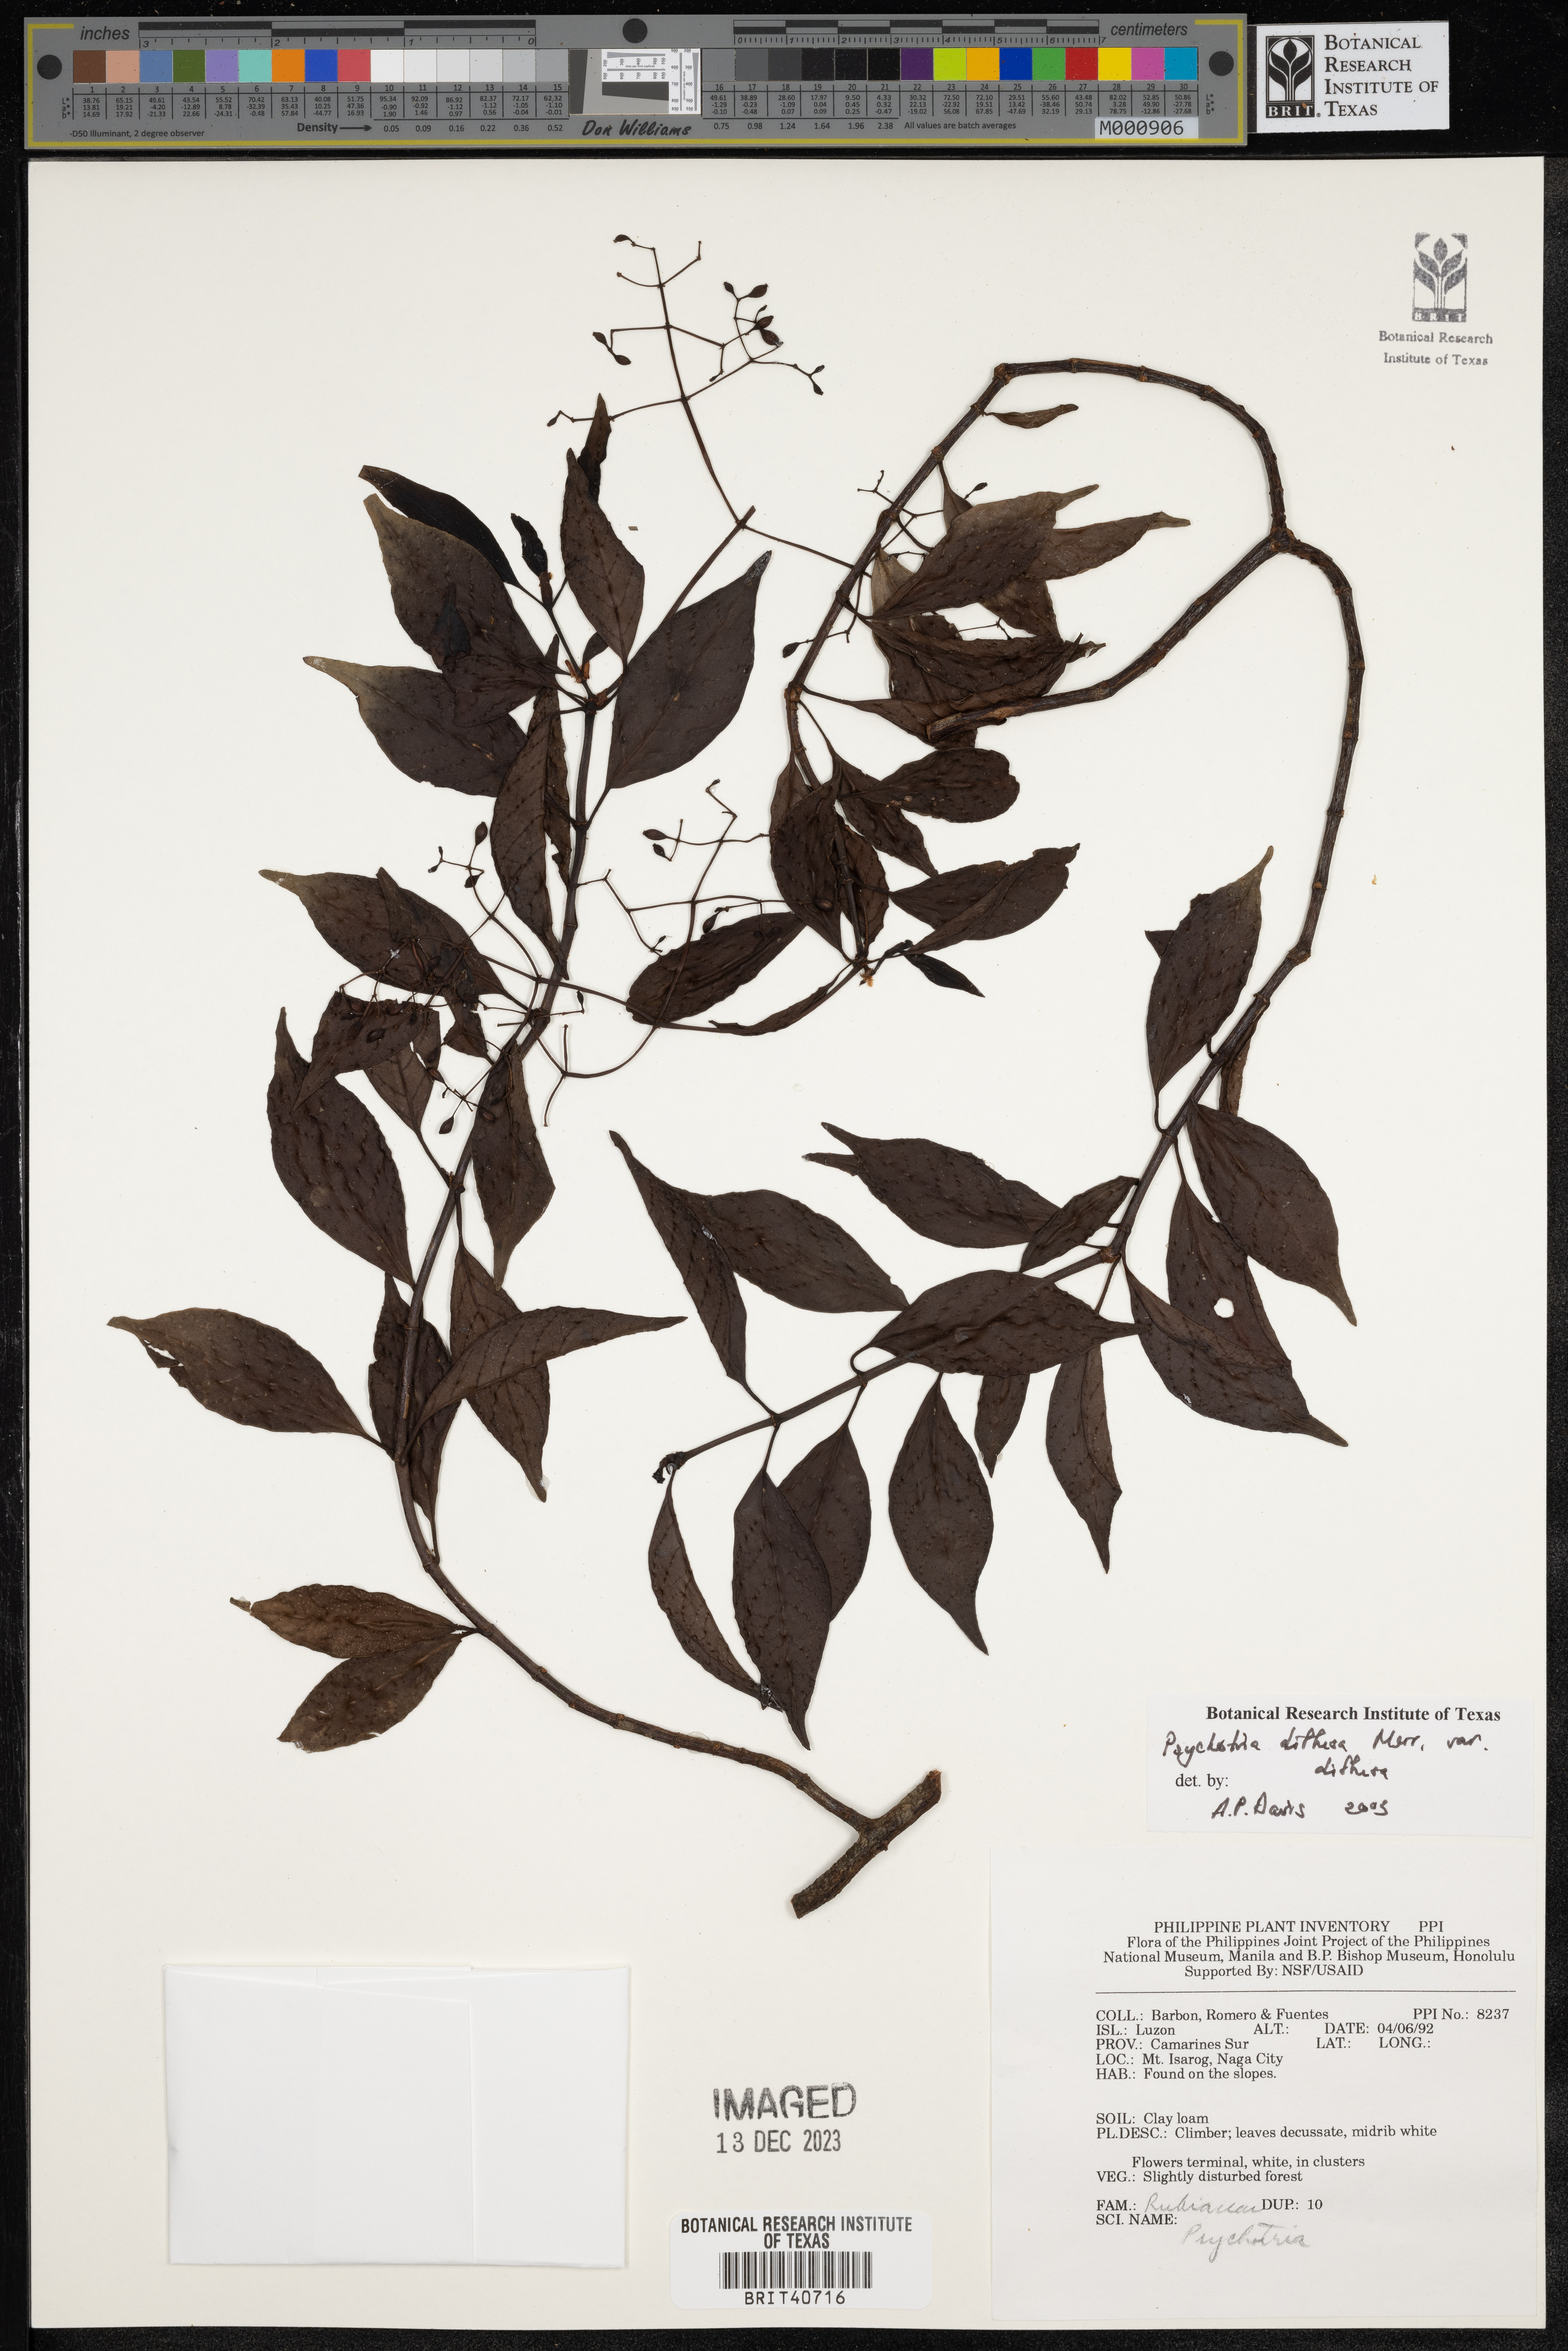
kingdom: Plantae
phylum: Tracheophyta
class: Magnoliopsida
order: Gentianales
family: Rubiaceae
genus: Psychotria
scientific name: Psychotria diffusa
